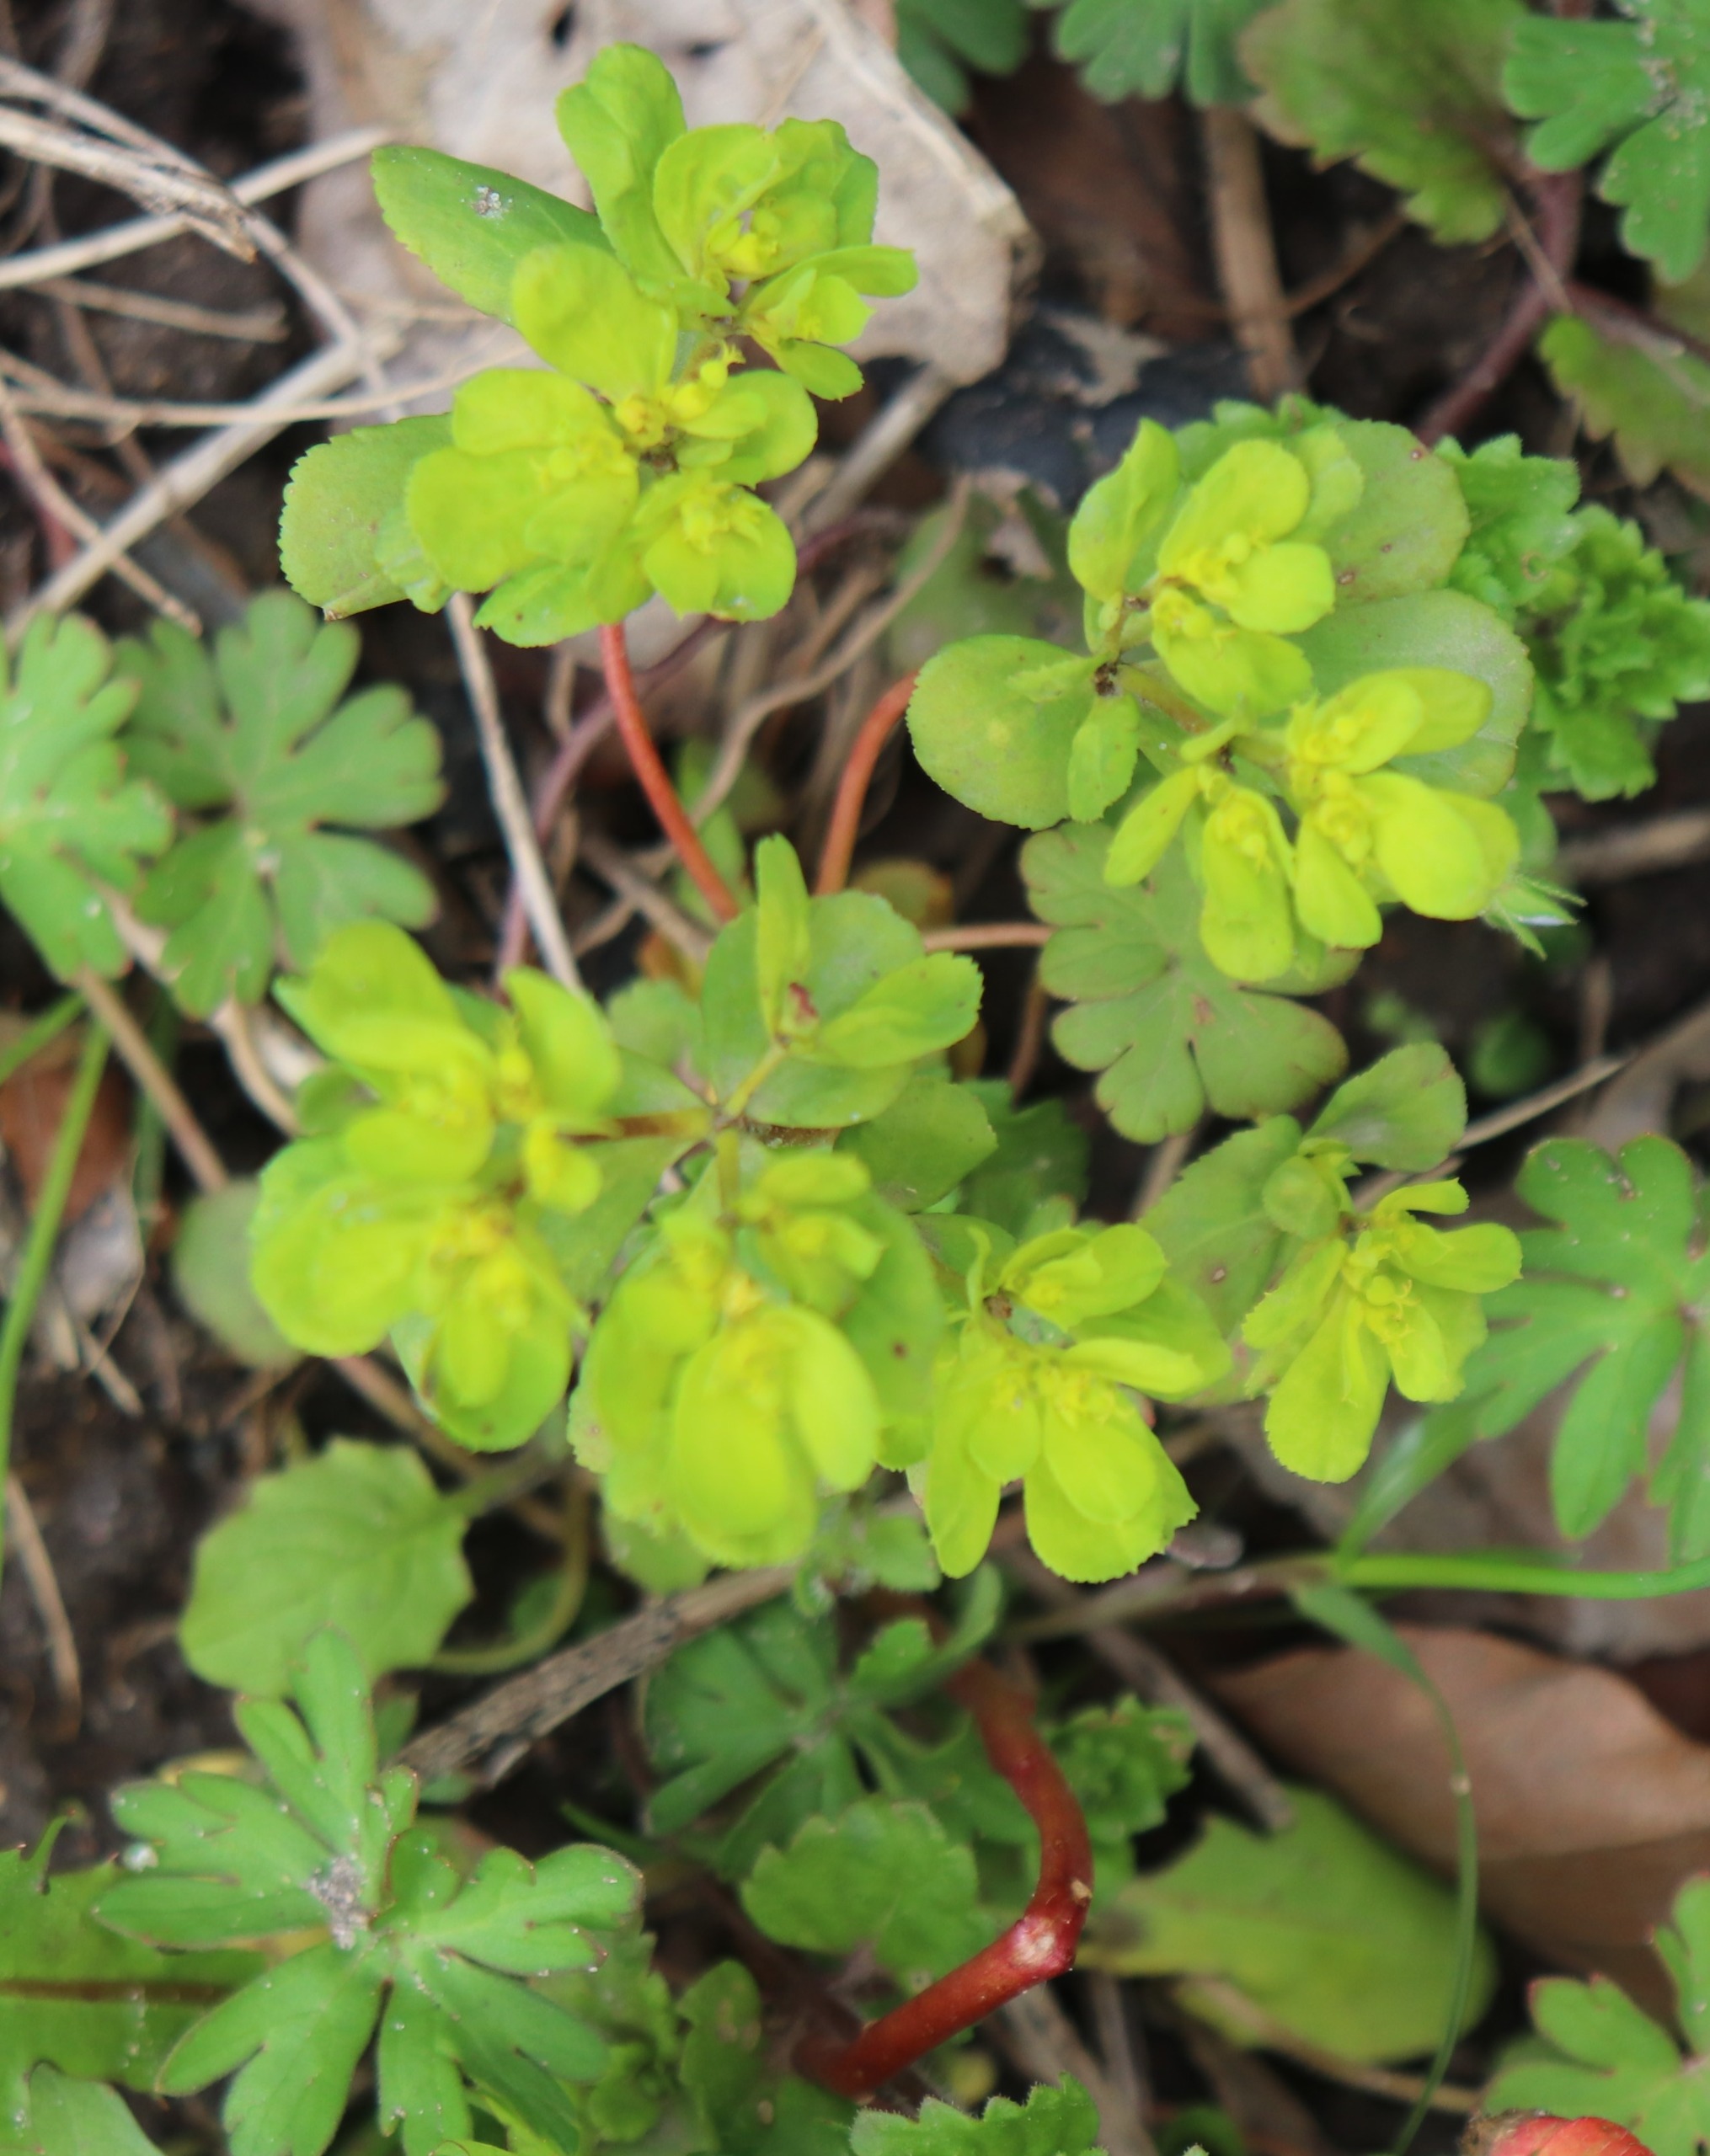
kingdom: Plantae
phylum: Tracheophyta
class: Magnoliopsida
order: Malpighiales
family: Euphorbiaceae
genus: Euphorbia
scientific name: Euphorbia helioscopia
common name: Skærm-vortemælk
